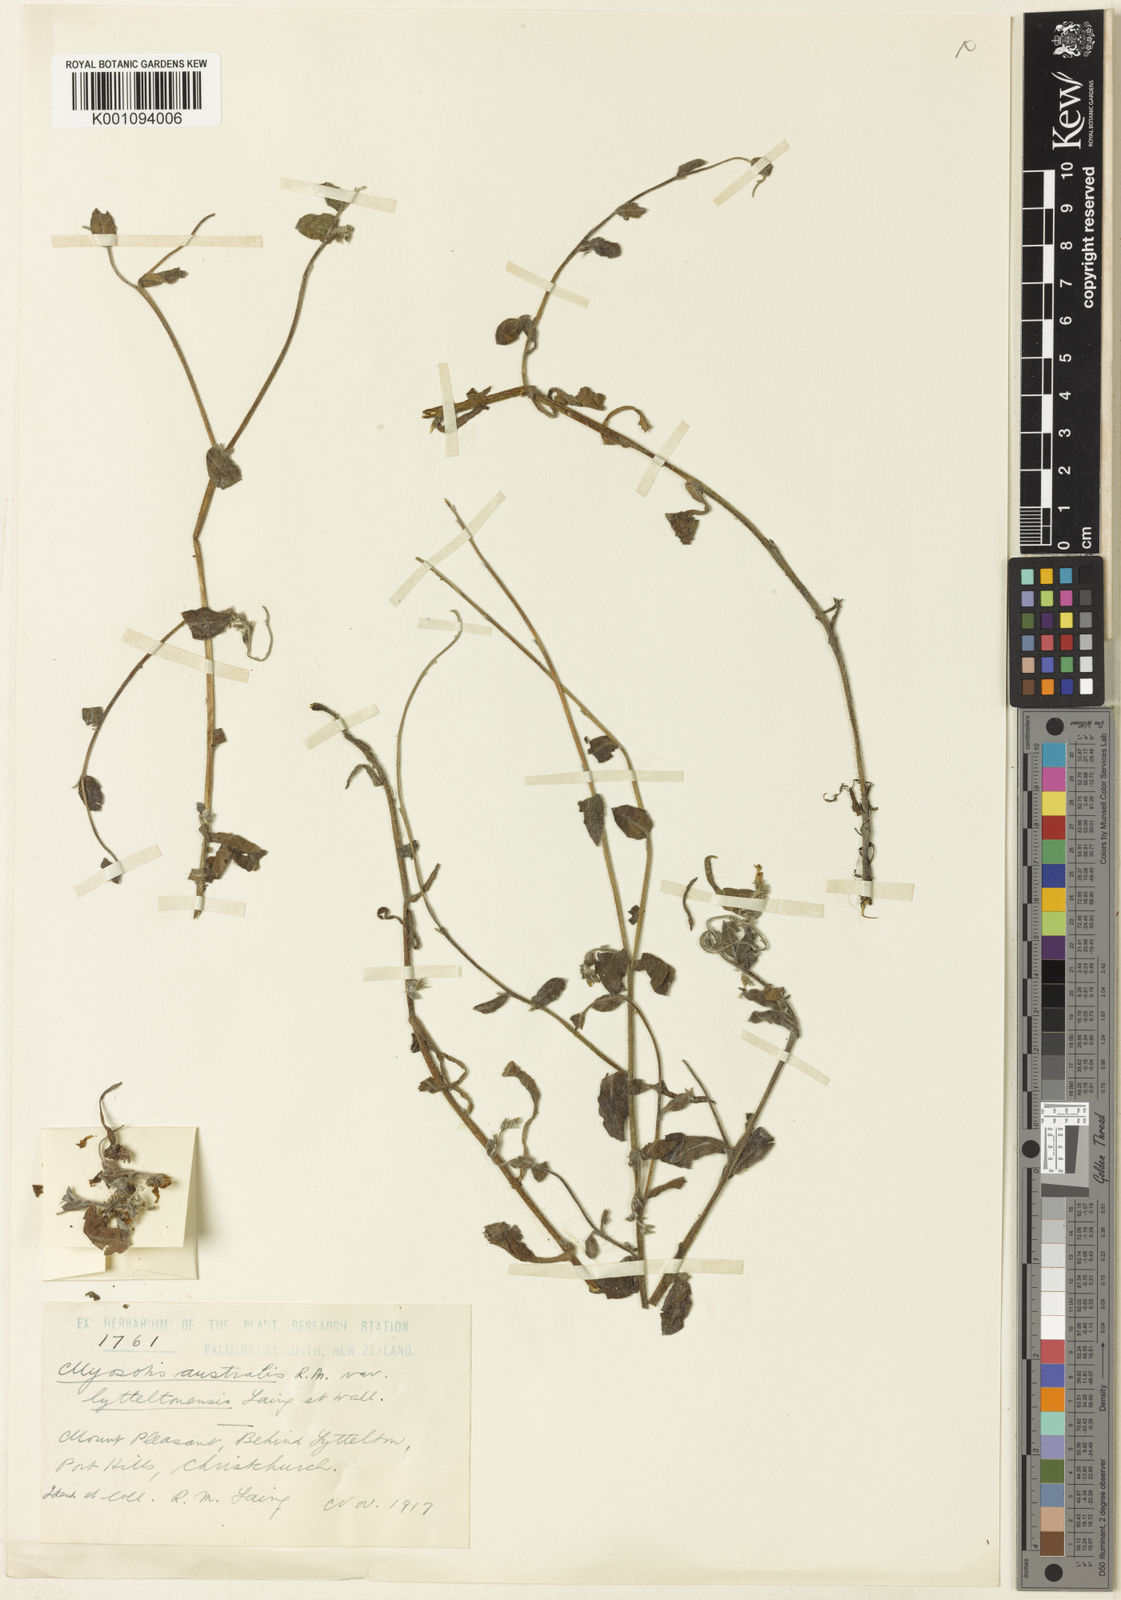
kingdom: Plantae
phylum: Tracheophyta
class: Magnoliopsida
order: Boraginales
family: Boraginaceae
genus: Myosotis
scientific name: Myosotis australis
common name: Australian forget-me-not
